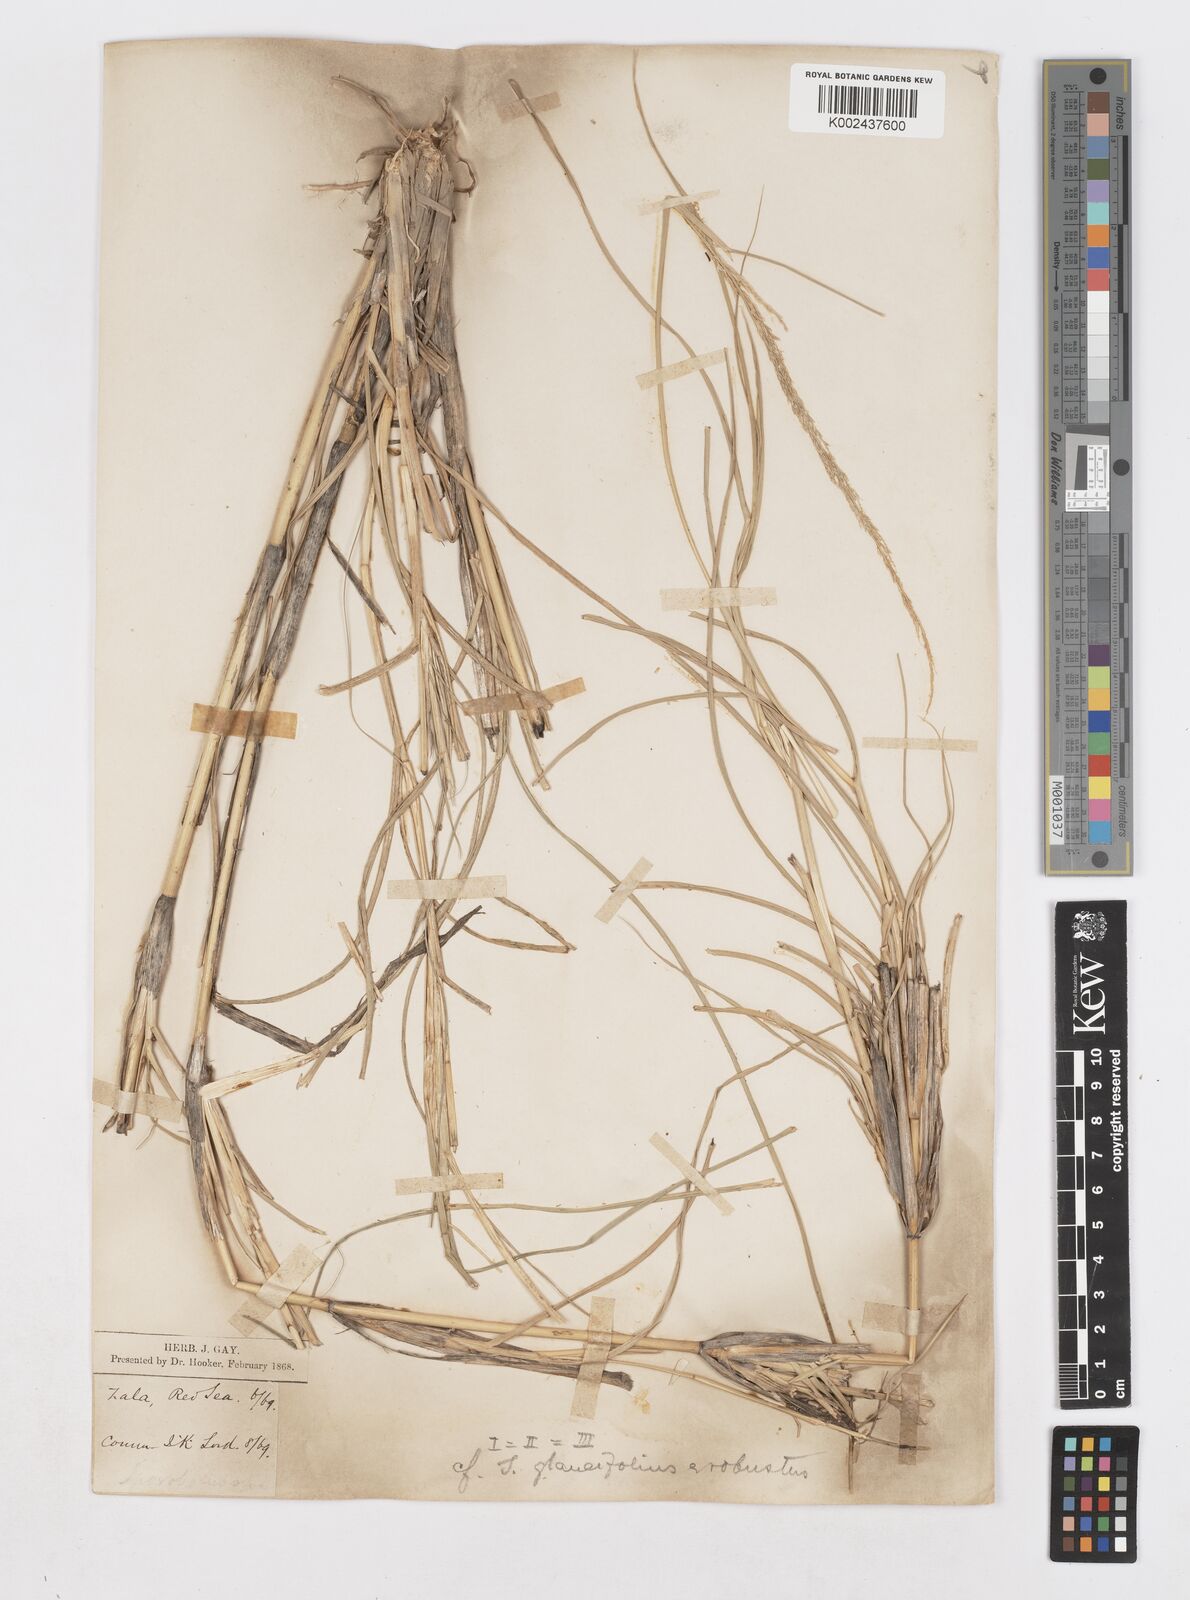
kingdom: Plantae
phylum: Tracheophyta
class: Liliopsida
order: Poales
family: Poaceae
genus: Sporobolus
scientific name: Sporobolus consimilis
